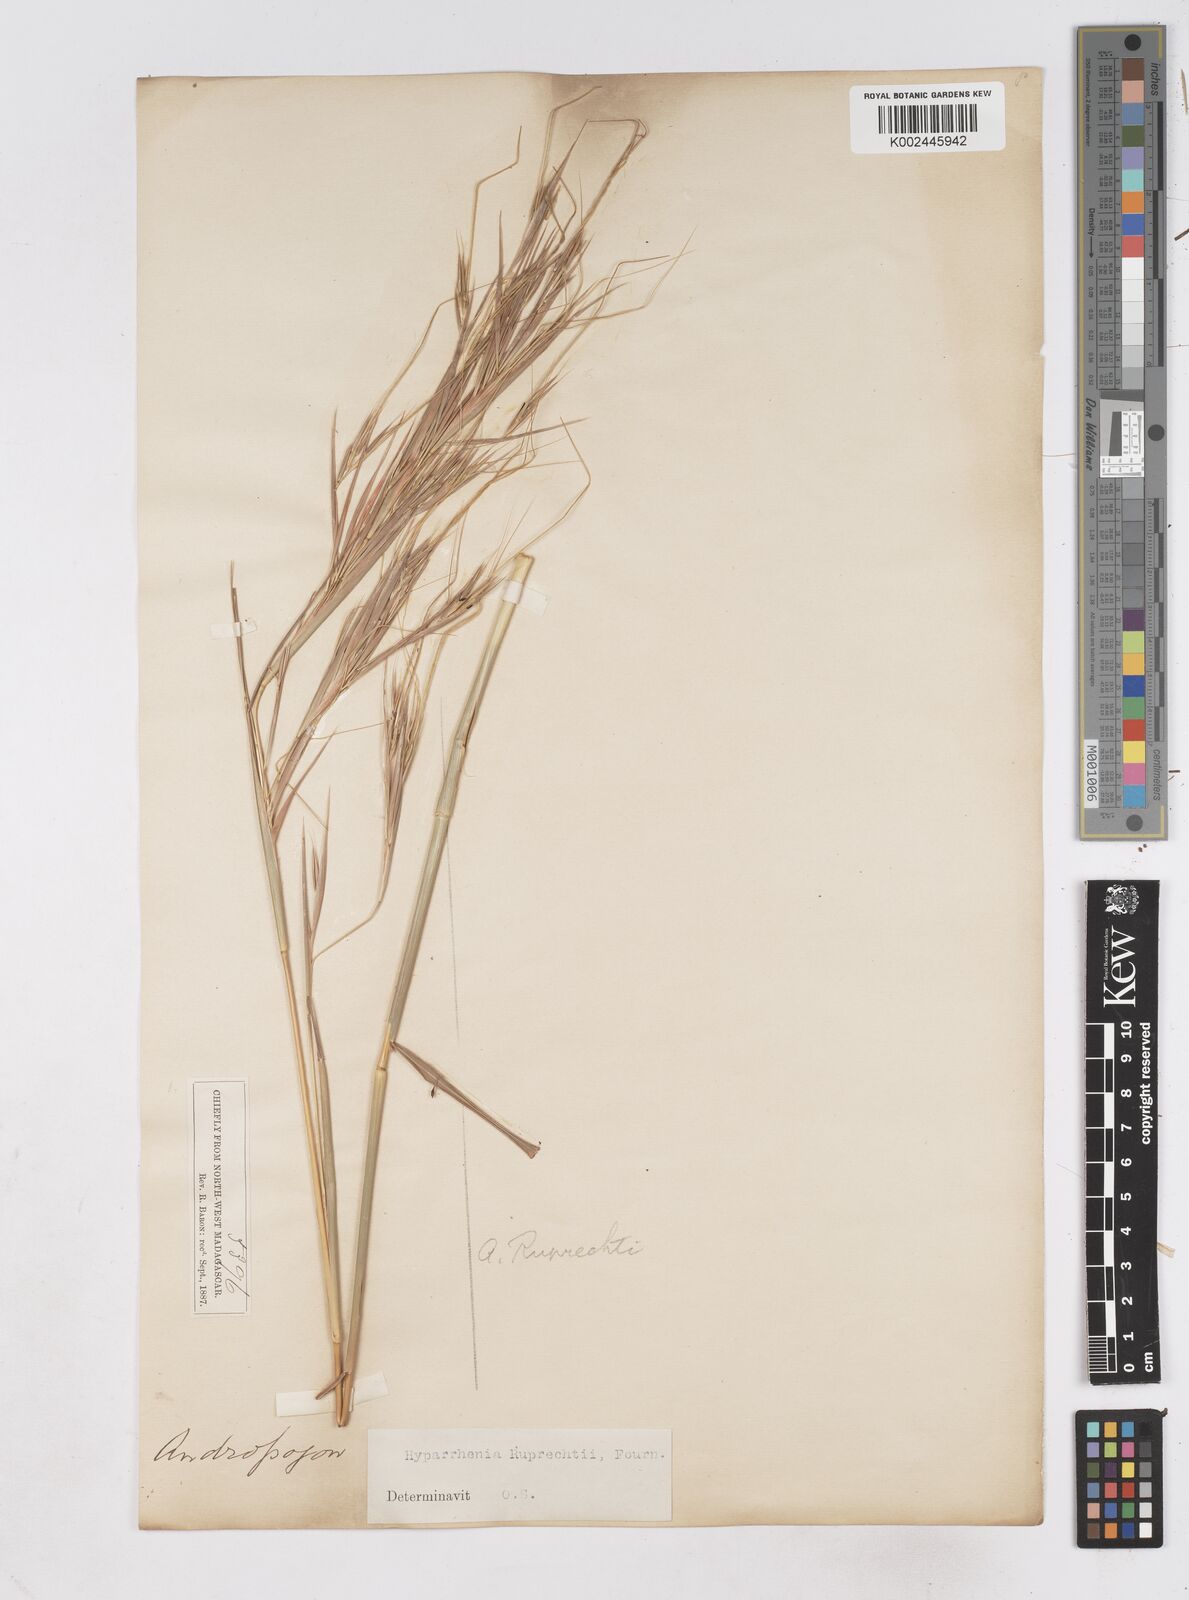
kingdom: Plantae
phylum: Tracheophyta
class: Liliopsida
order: Poales
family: Poaceae
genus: Hyperthelia
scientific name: Hyperthelia dissoluta
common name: Yellow thatching grass
